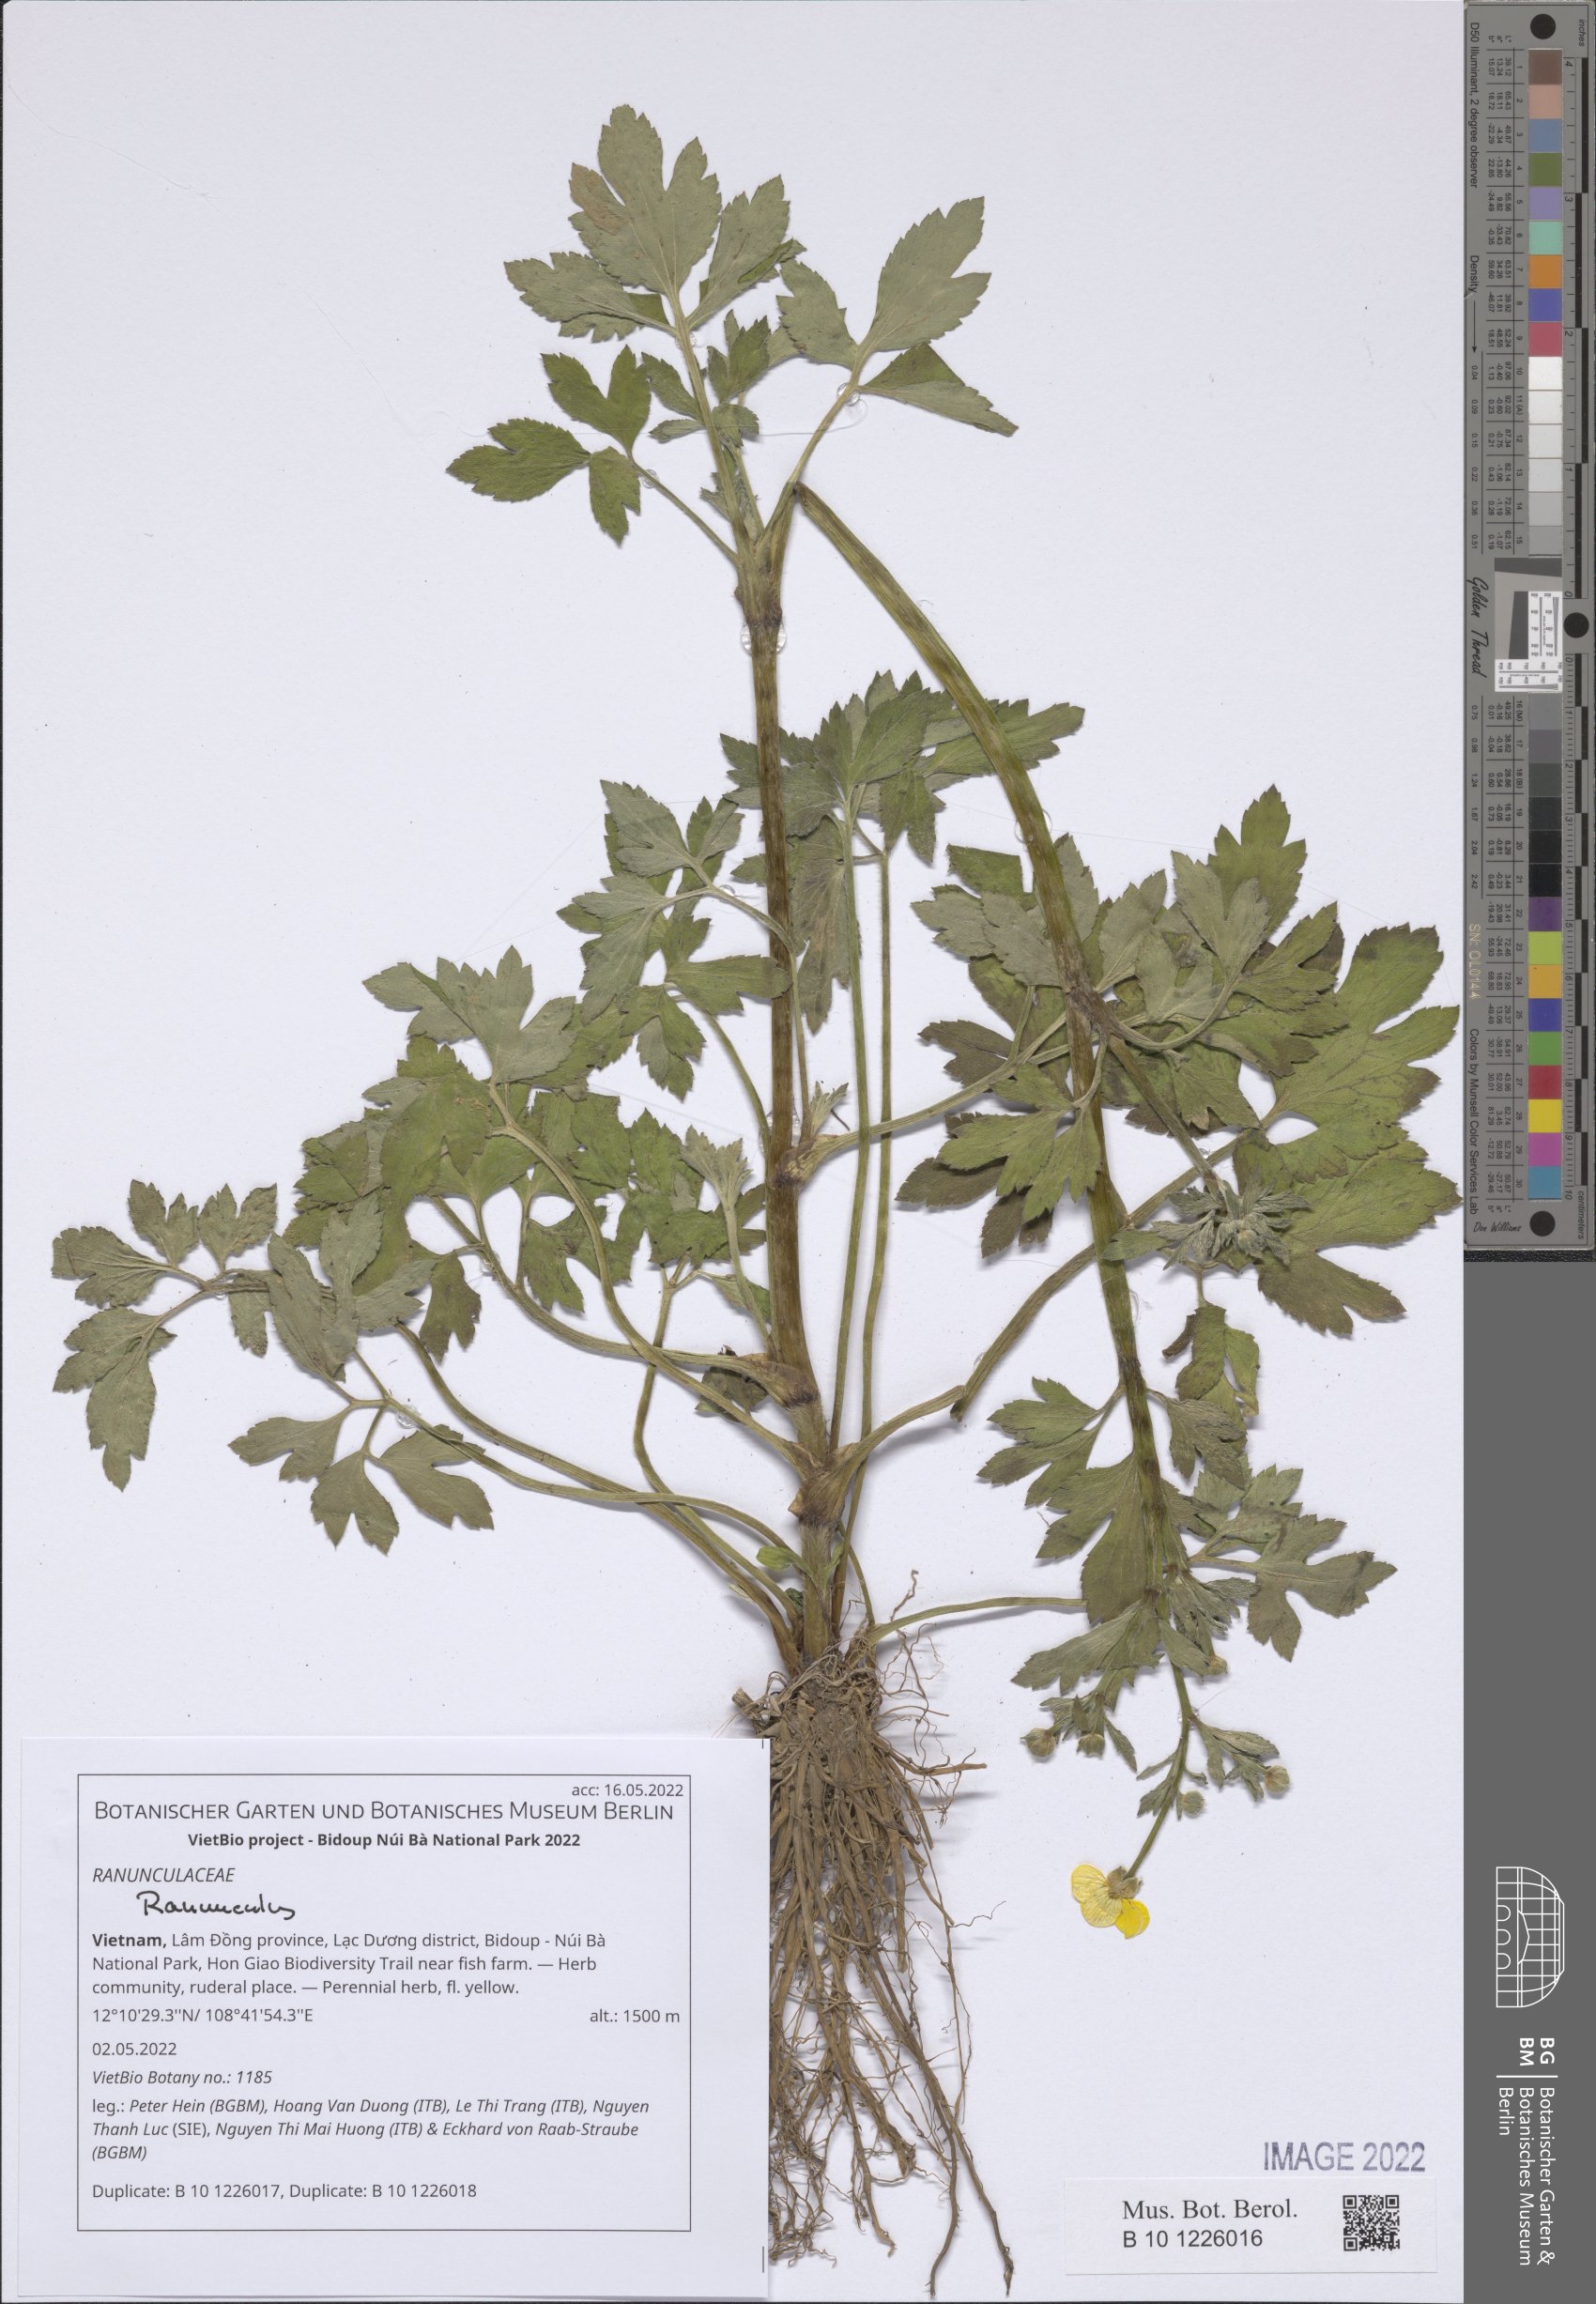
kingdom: Plantae
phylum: Tracheophyta
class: Magnoliopsida
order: Ranunculales
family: Ranunculaceae
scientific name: Ranunculaceae
